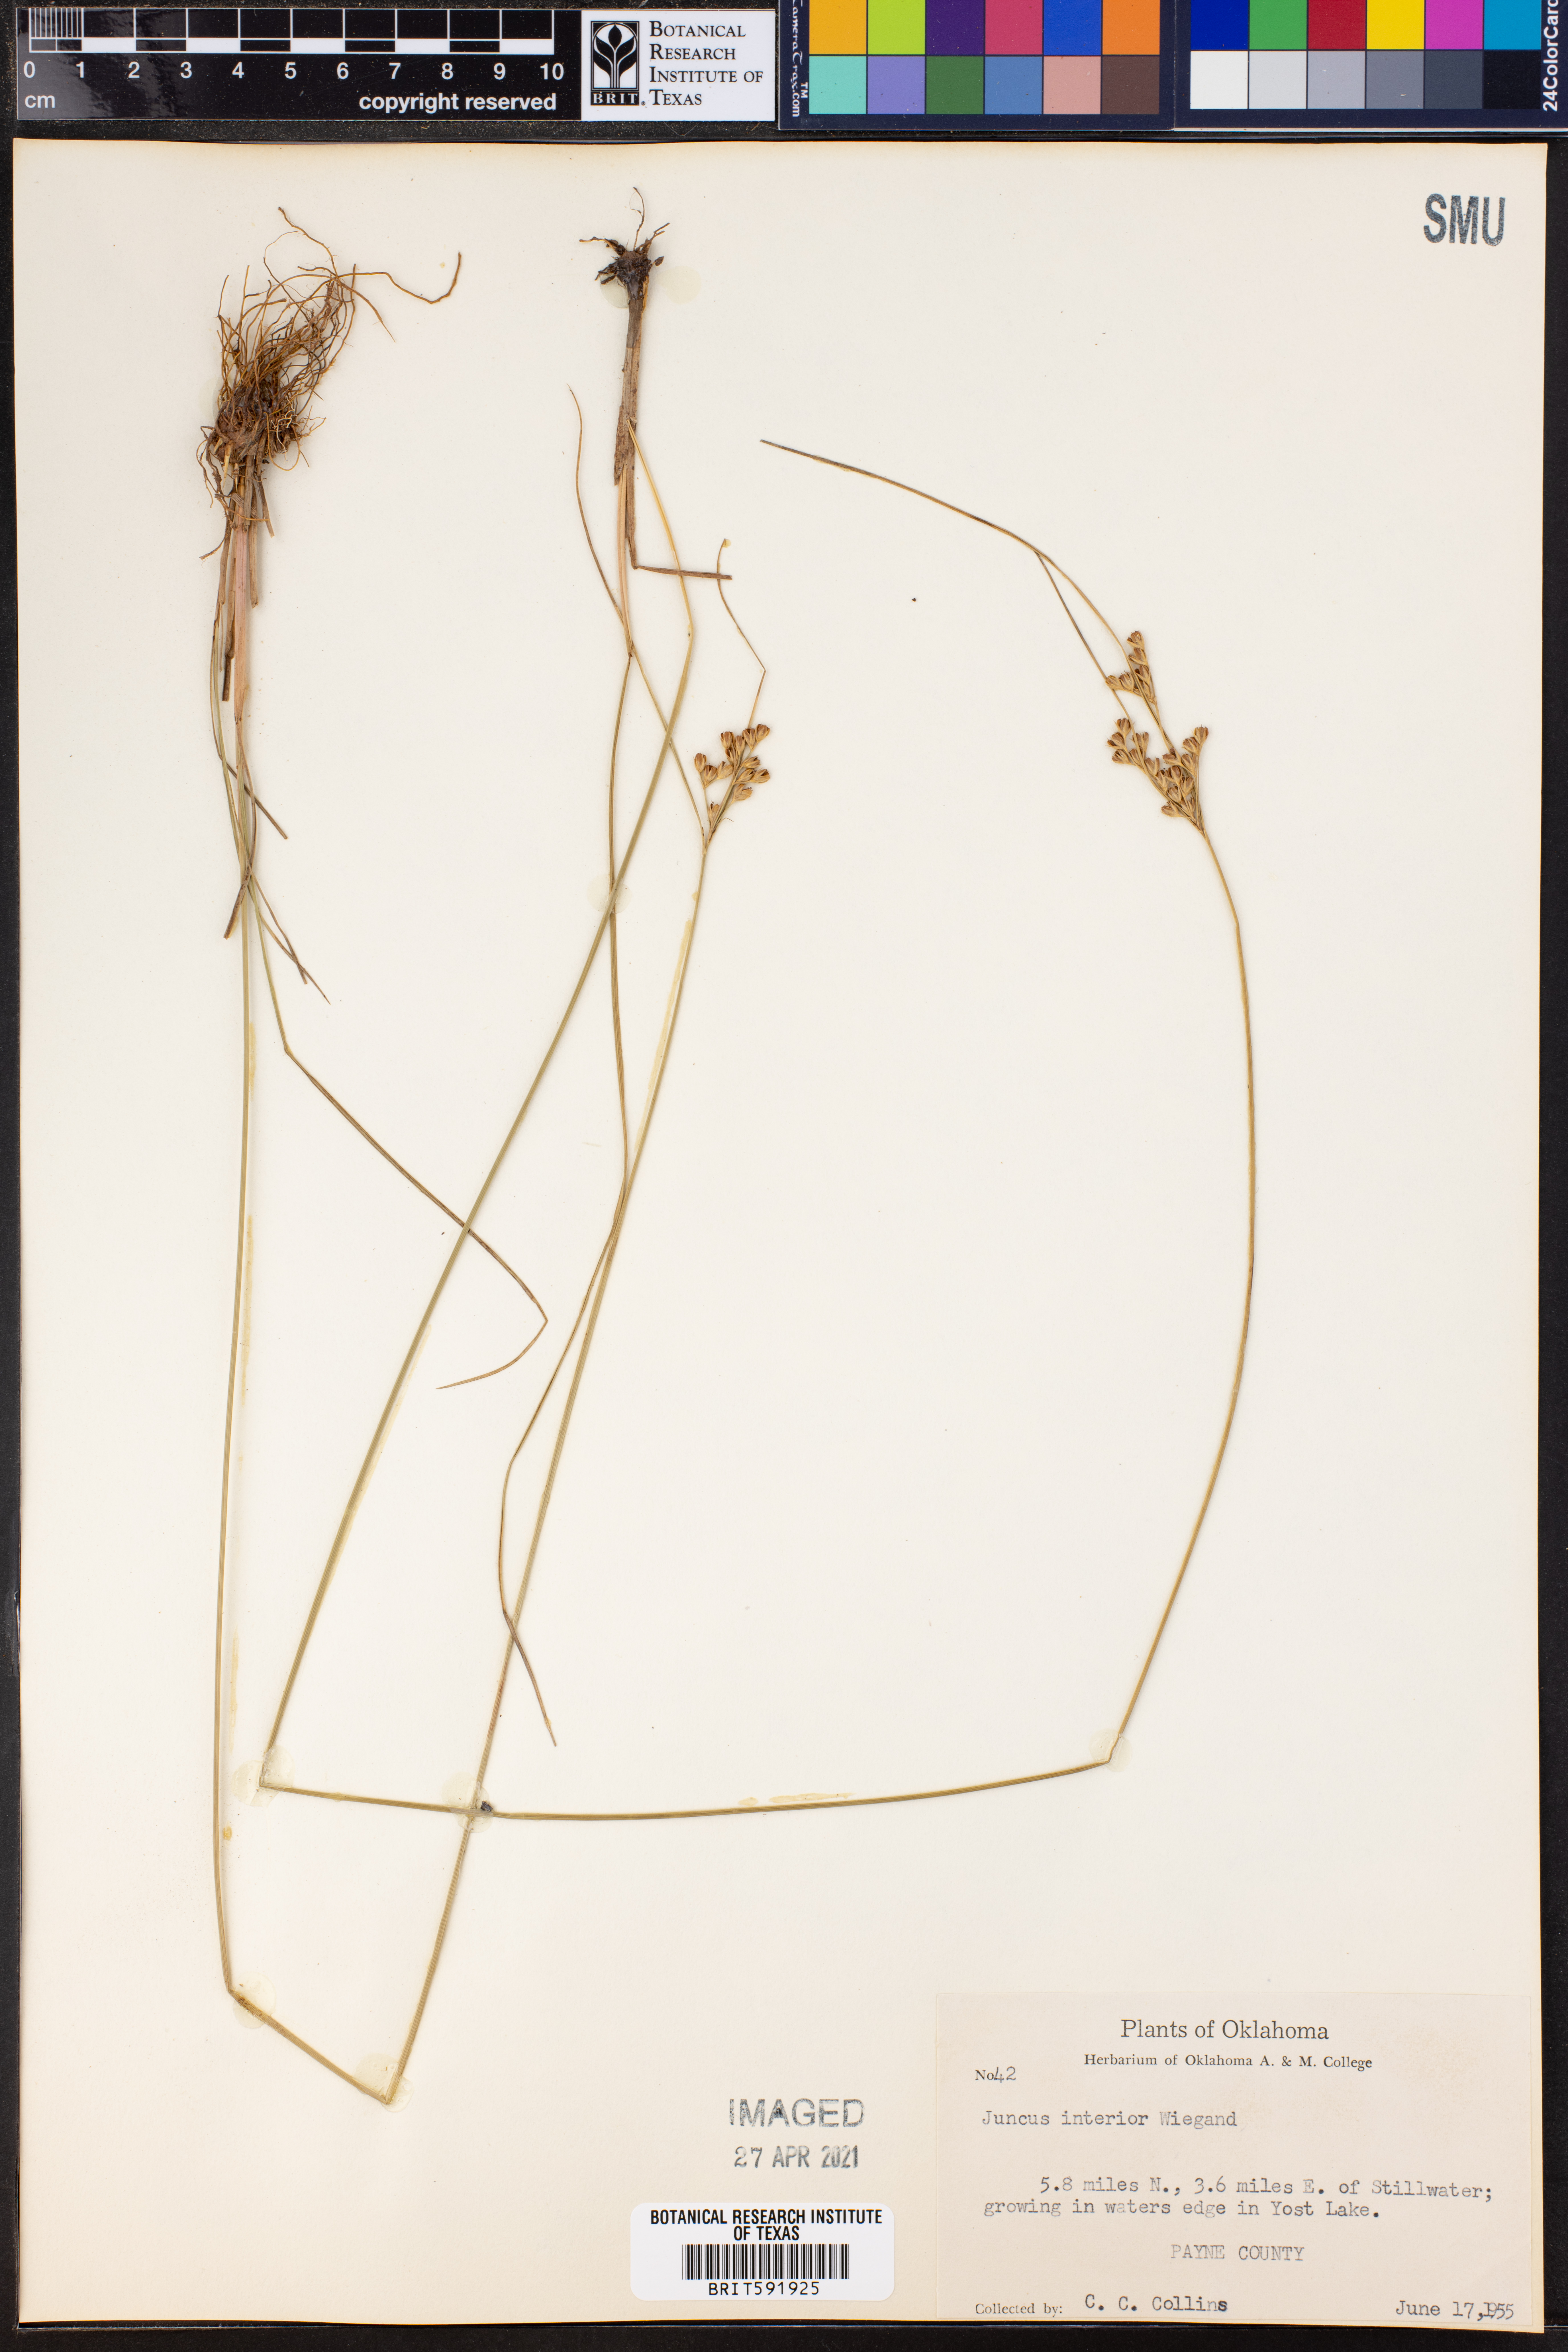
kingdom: Plantae
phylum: Tracheophyta
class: Liliopsida
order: Poales
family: Juncaceae
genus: Juncus
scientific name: Juncus interior
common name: Interior rush
